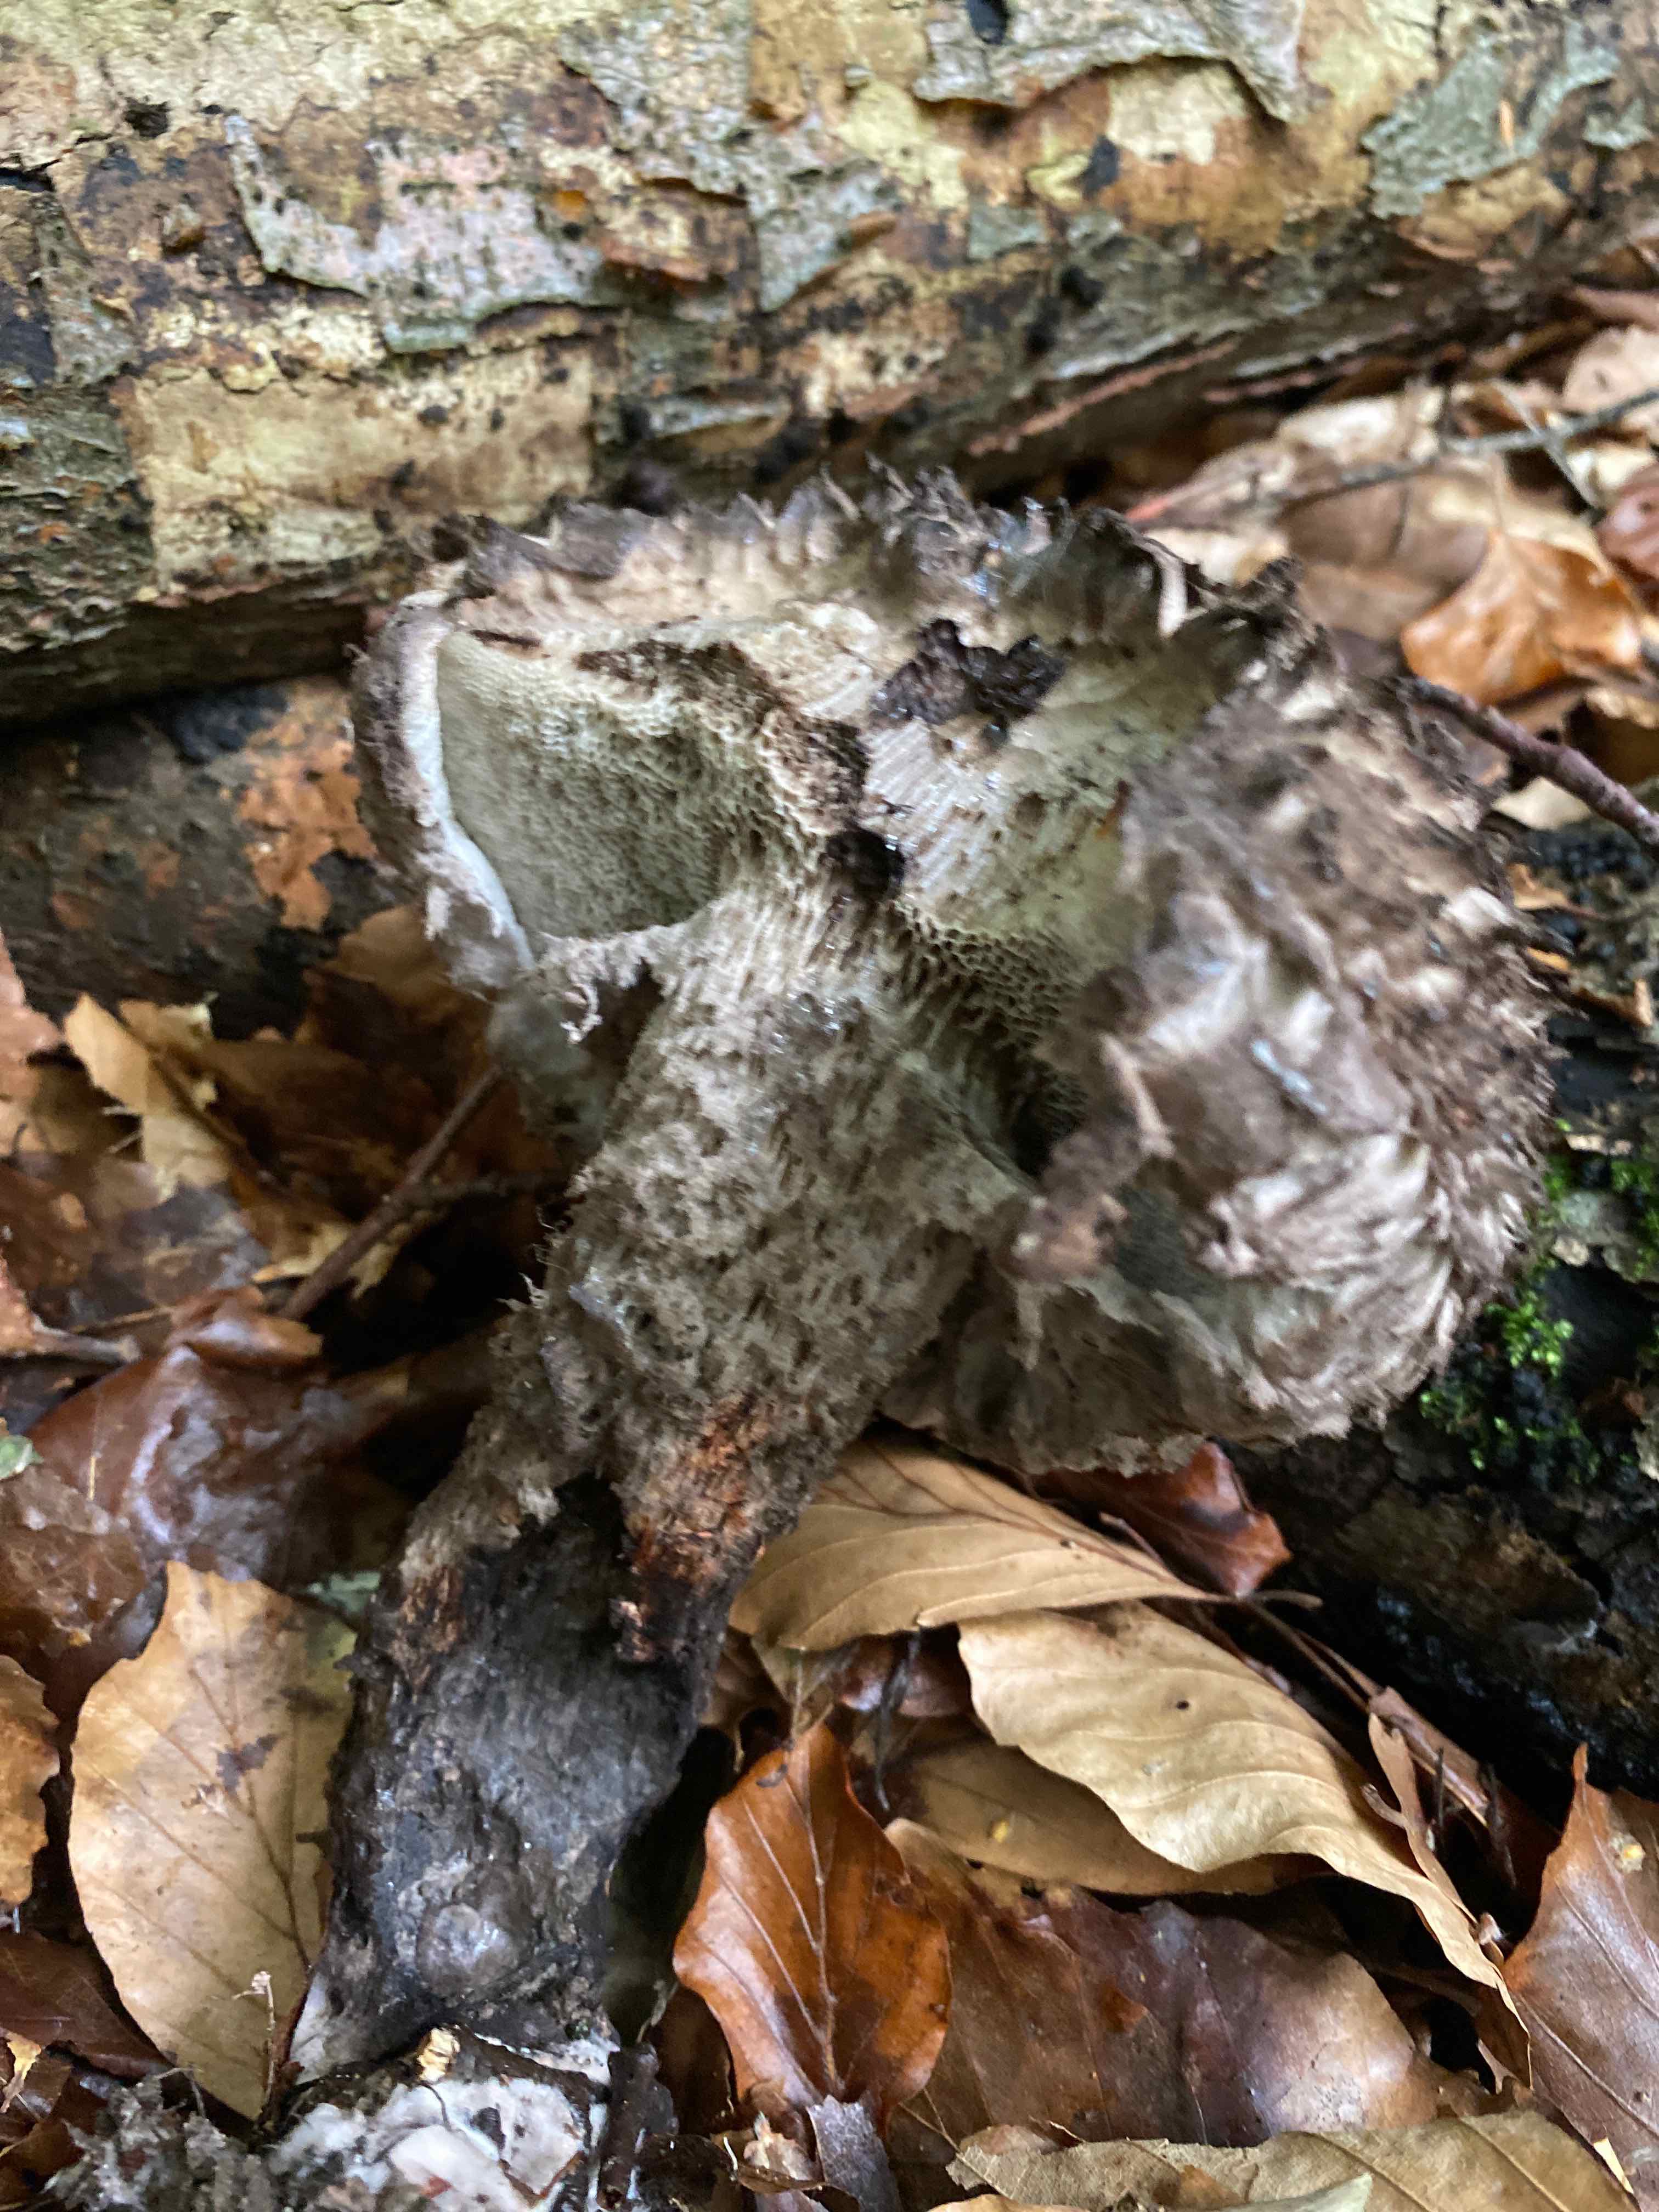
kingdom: Fungi
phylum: Basidiomycota
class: Agaricomycetes
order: Boletales
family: Boletaceae
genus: Strobilomyces
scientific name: Strobilomyces strobilaceus
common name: koglerørhat
